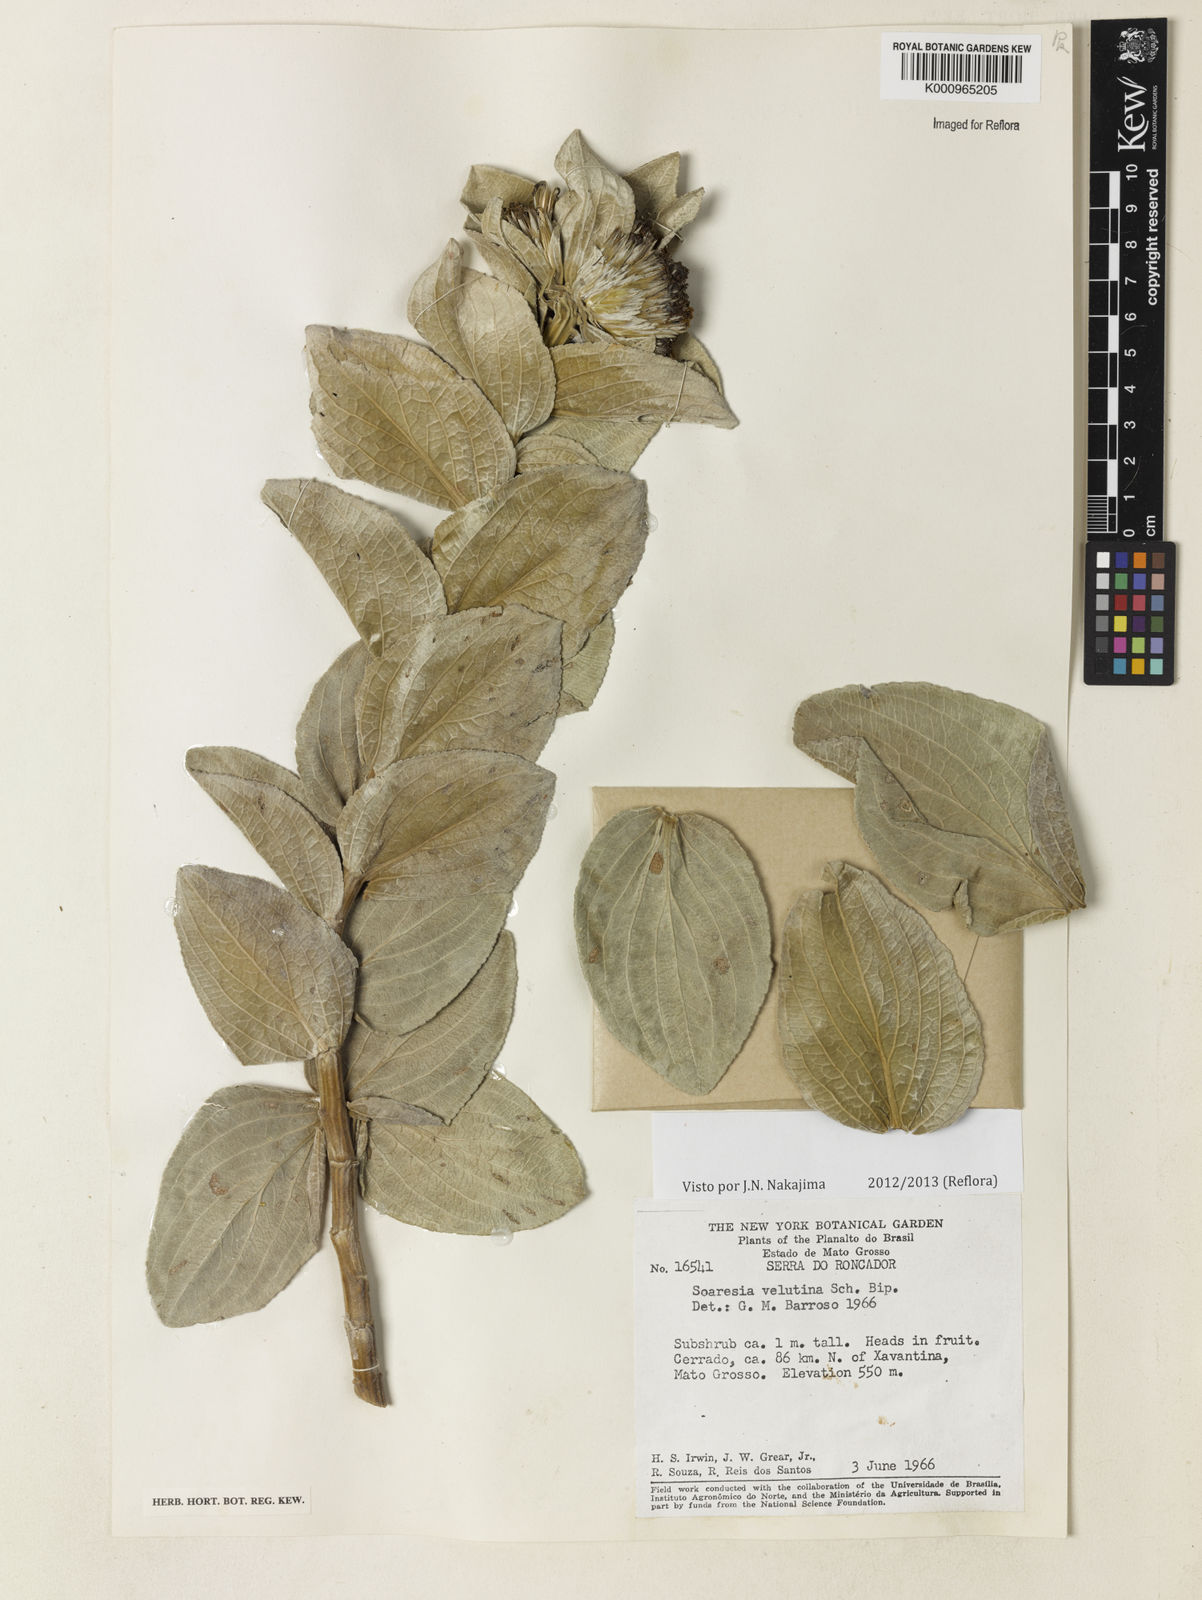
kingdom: Plantae
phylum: Tracheophyta
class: Magnoliopsida
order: Asterales
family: Asteraceae
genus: Soaresia
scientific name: Soaresia velutina
